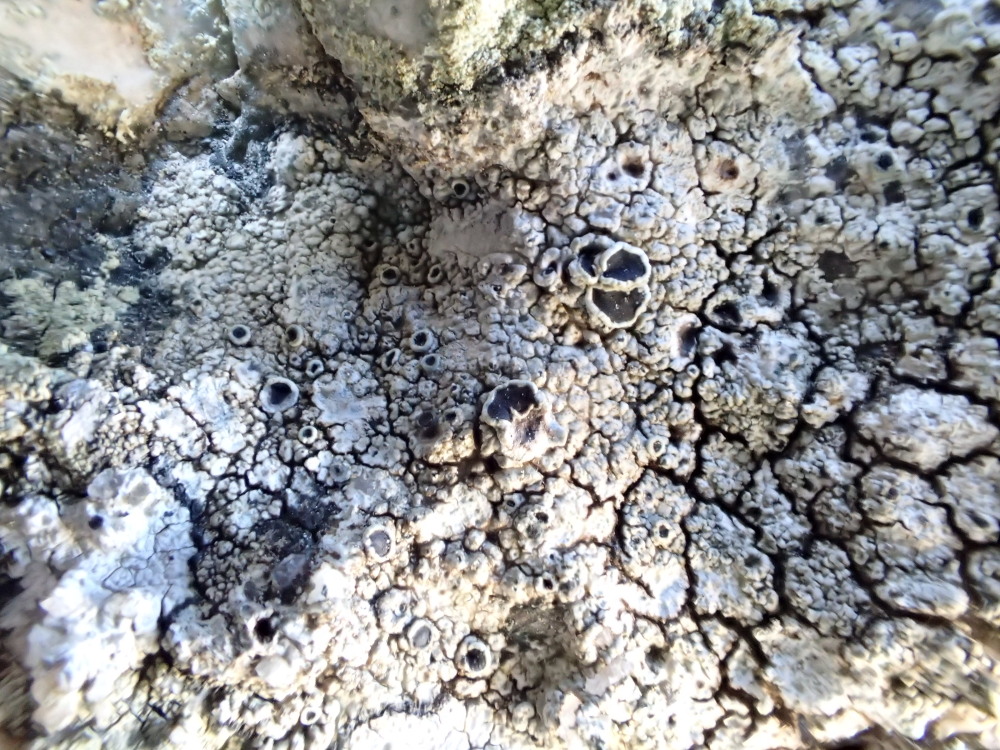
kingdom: Fungi
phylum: Ascomycota
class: Lecanoromycetes
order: Lecanorales
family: Tephromelataceae
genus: Tephromela
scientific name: Tephromela atra
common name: sortfrugtet kantskivelav
